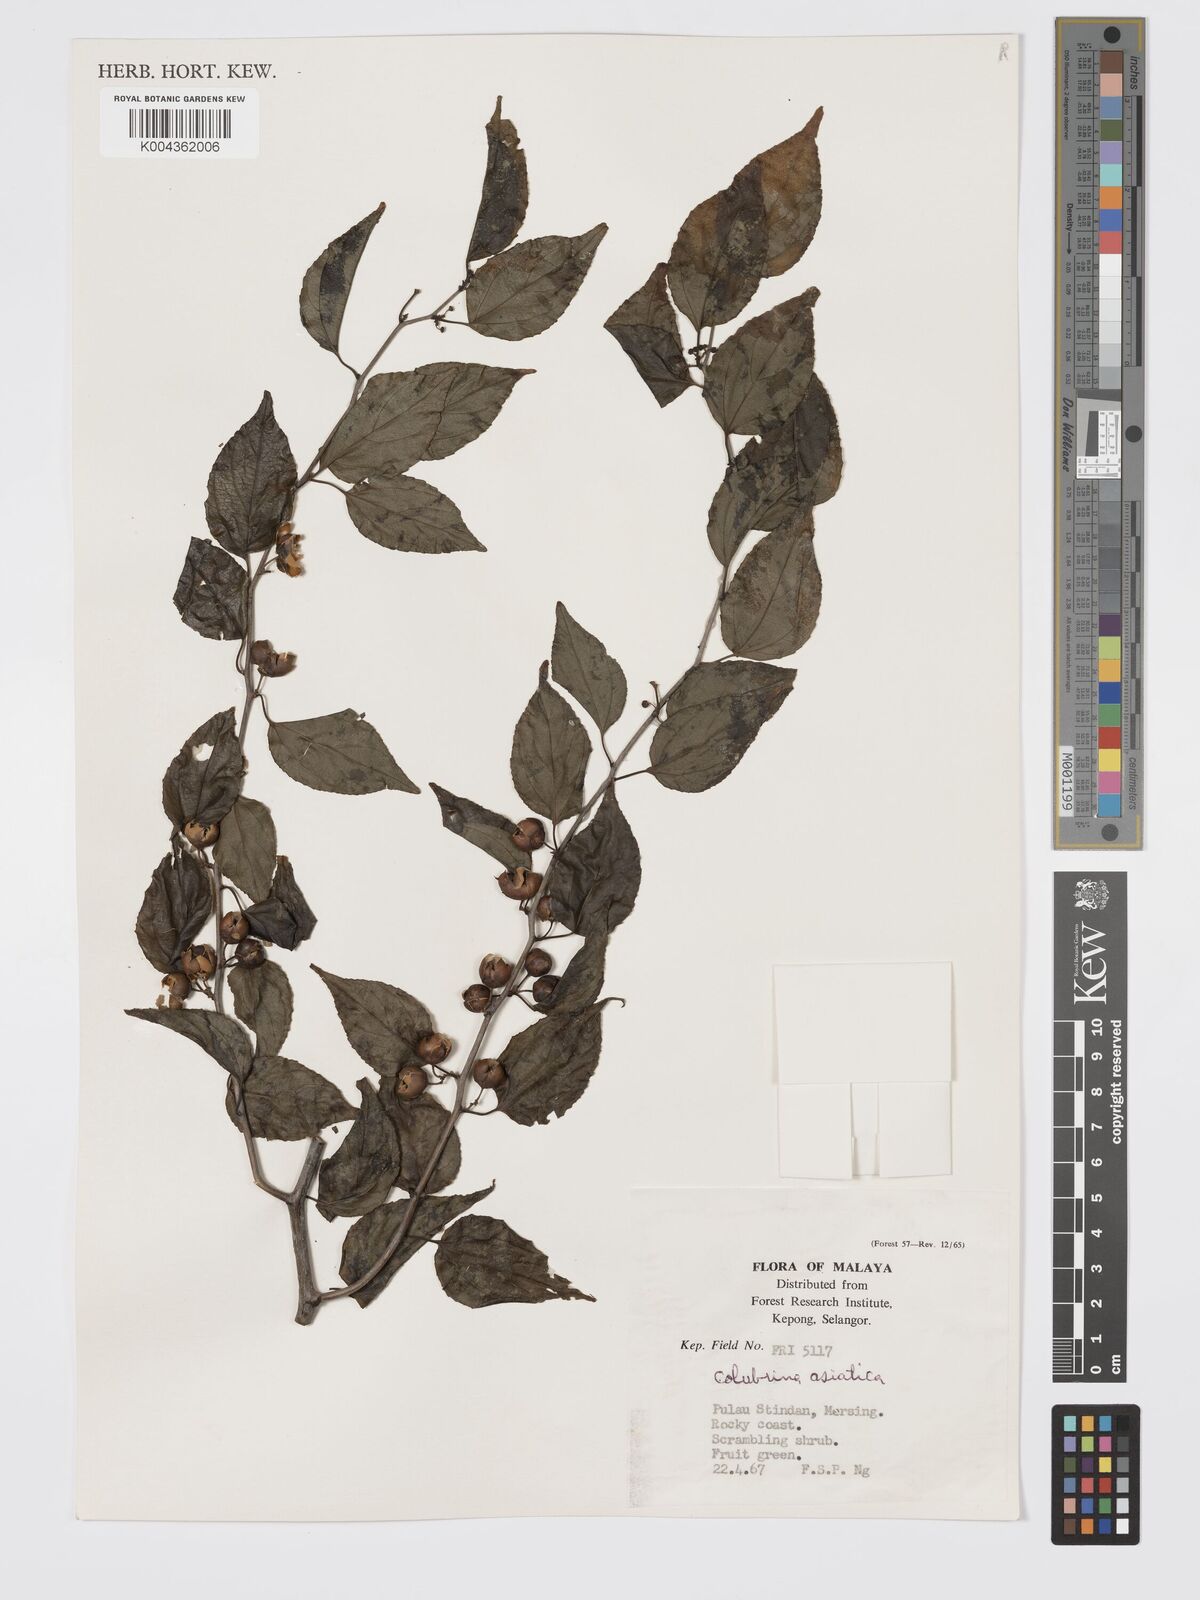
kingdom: Plantae
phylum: Tracheophyta
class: Magnoliopsida
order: Rosales
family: Rhamnaceae
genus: Colubrina
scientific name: Colubrina asiatica
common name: Asian nakedwood
